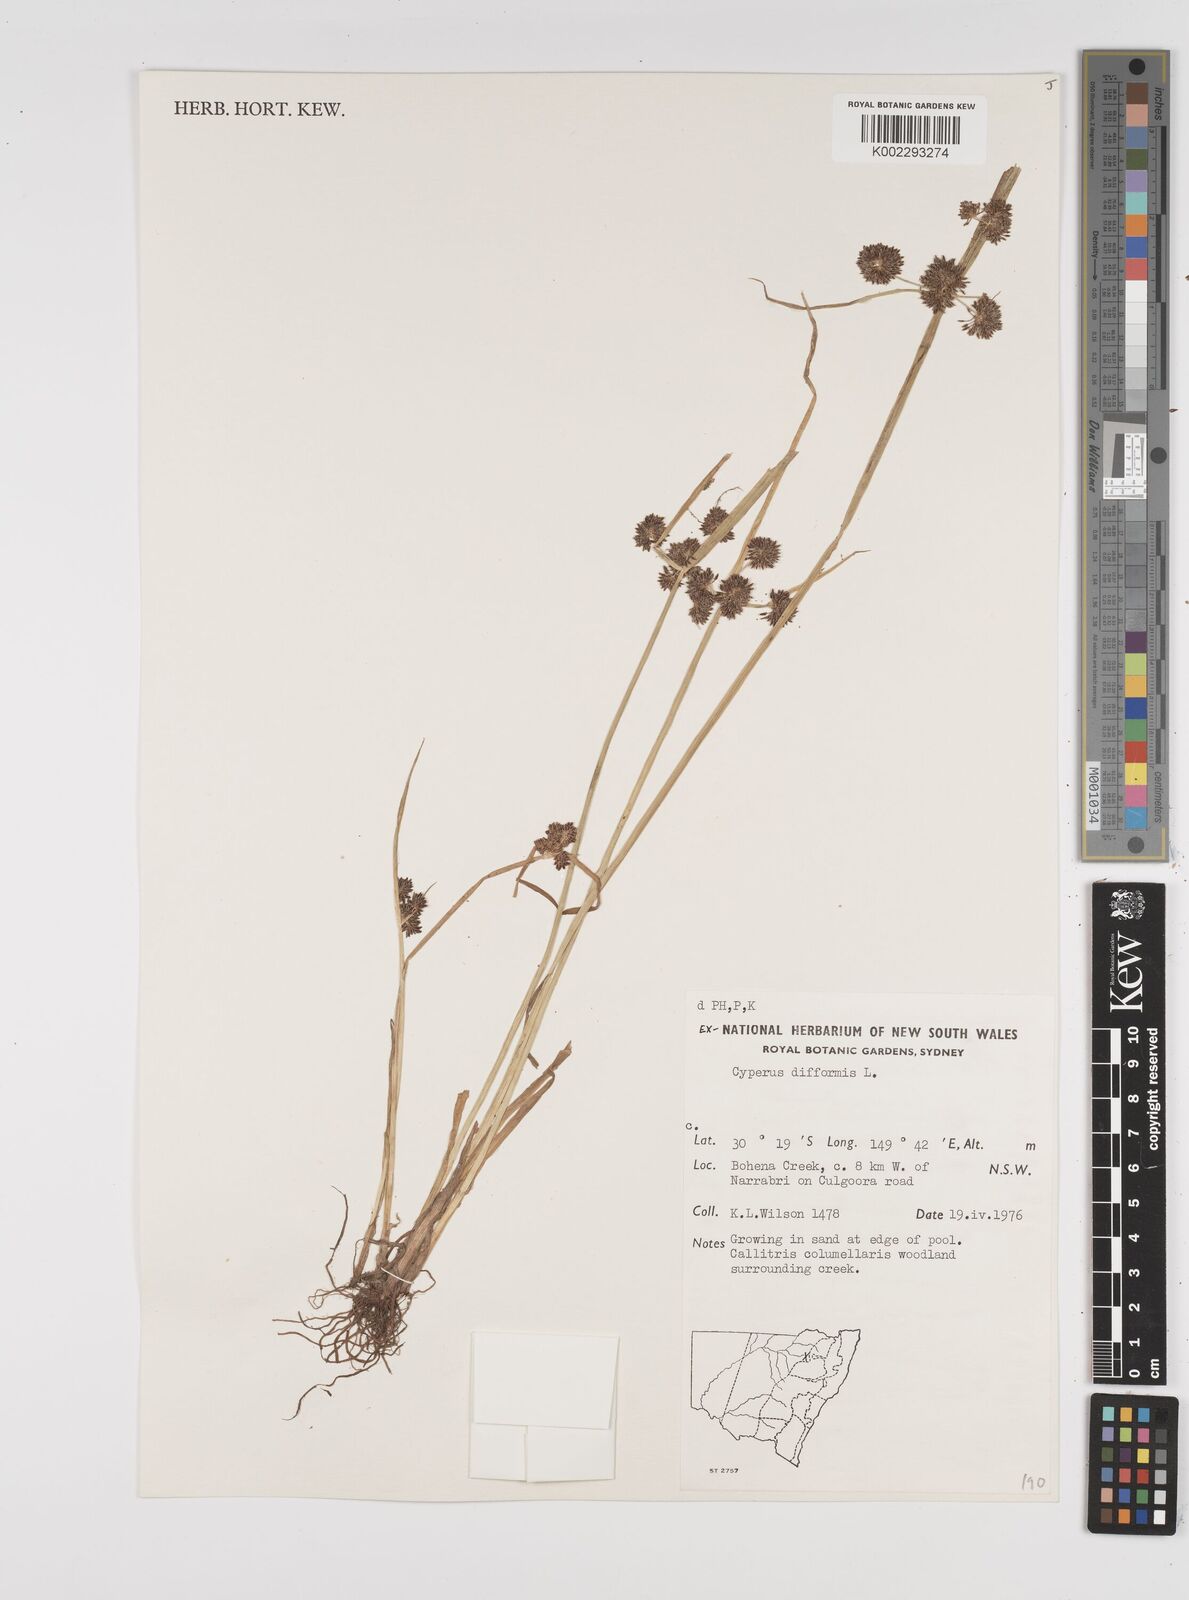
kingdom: Plantae
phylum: Tracheophyta
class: Liliopsida
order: Poales
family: Cyperaceae
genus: Cyperus
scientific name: Cyperus difformis
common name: Variable flatsedge
